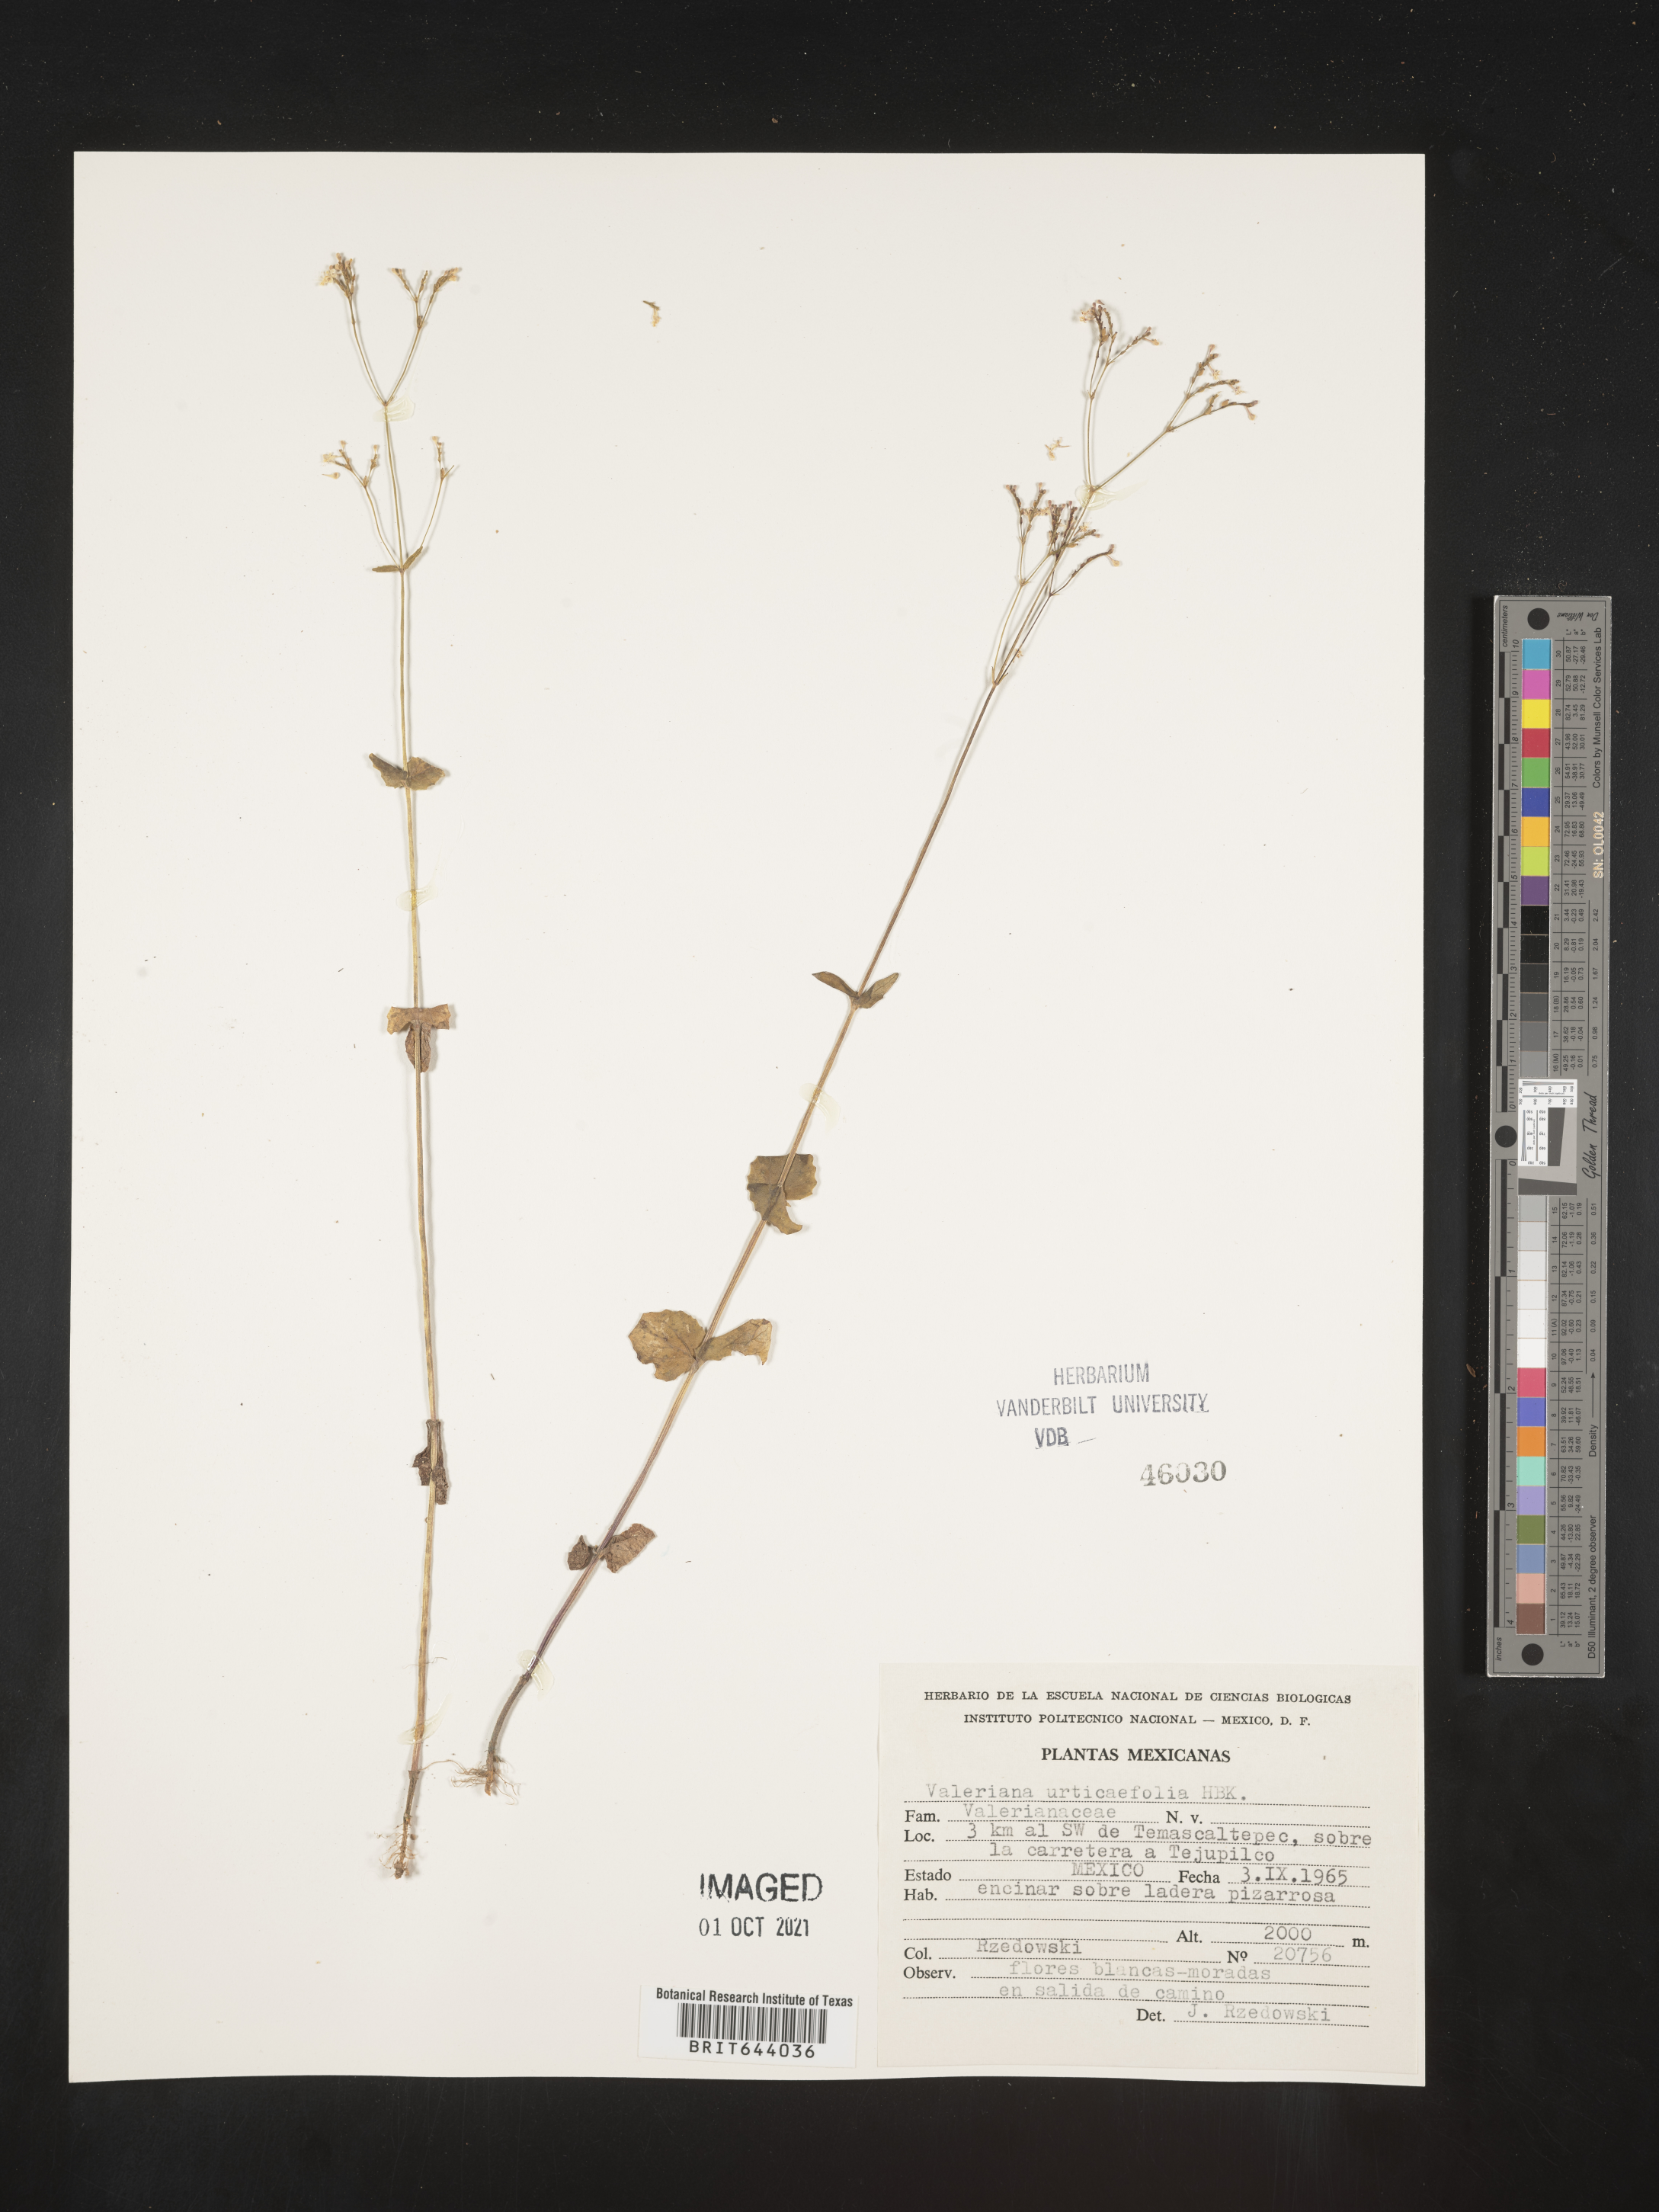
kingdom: Plantae
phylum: Tracheophyta
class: Magnoliopsida
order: Dipsacales
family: Caprifoliaceae
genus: Valeriana
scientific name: Valeriana
